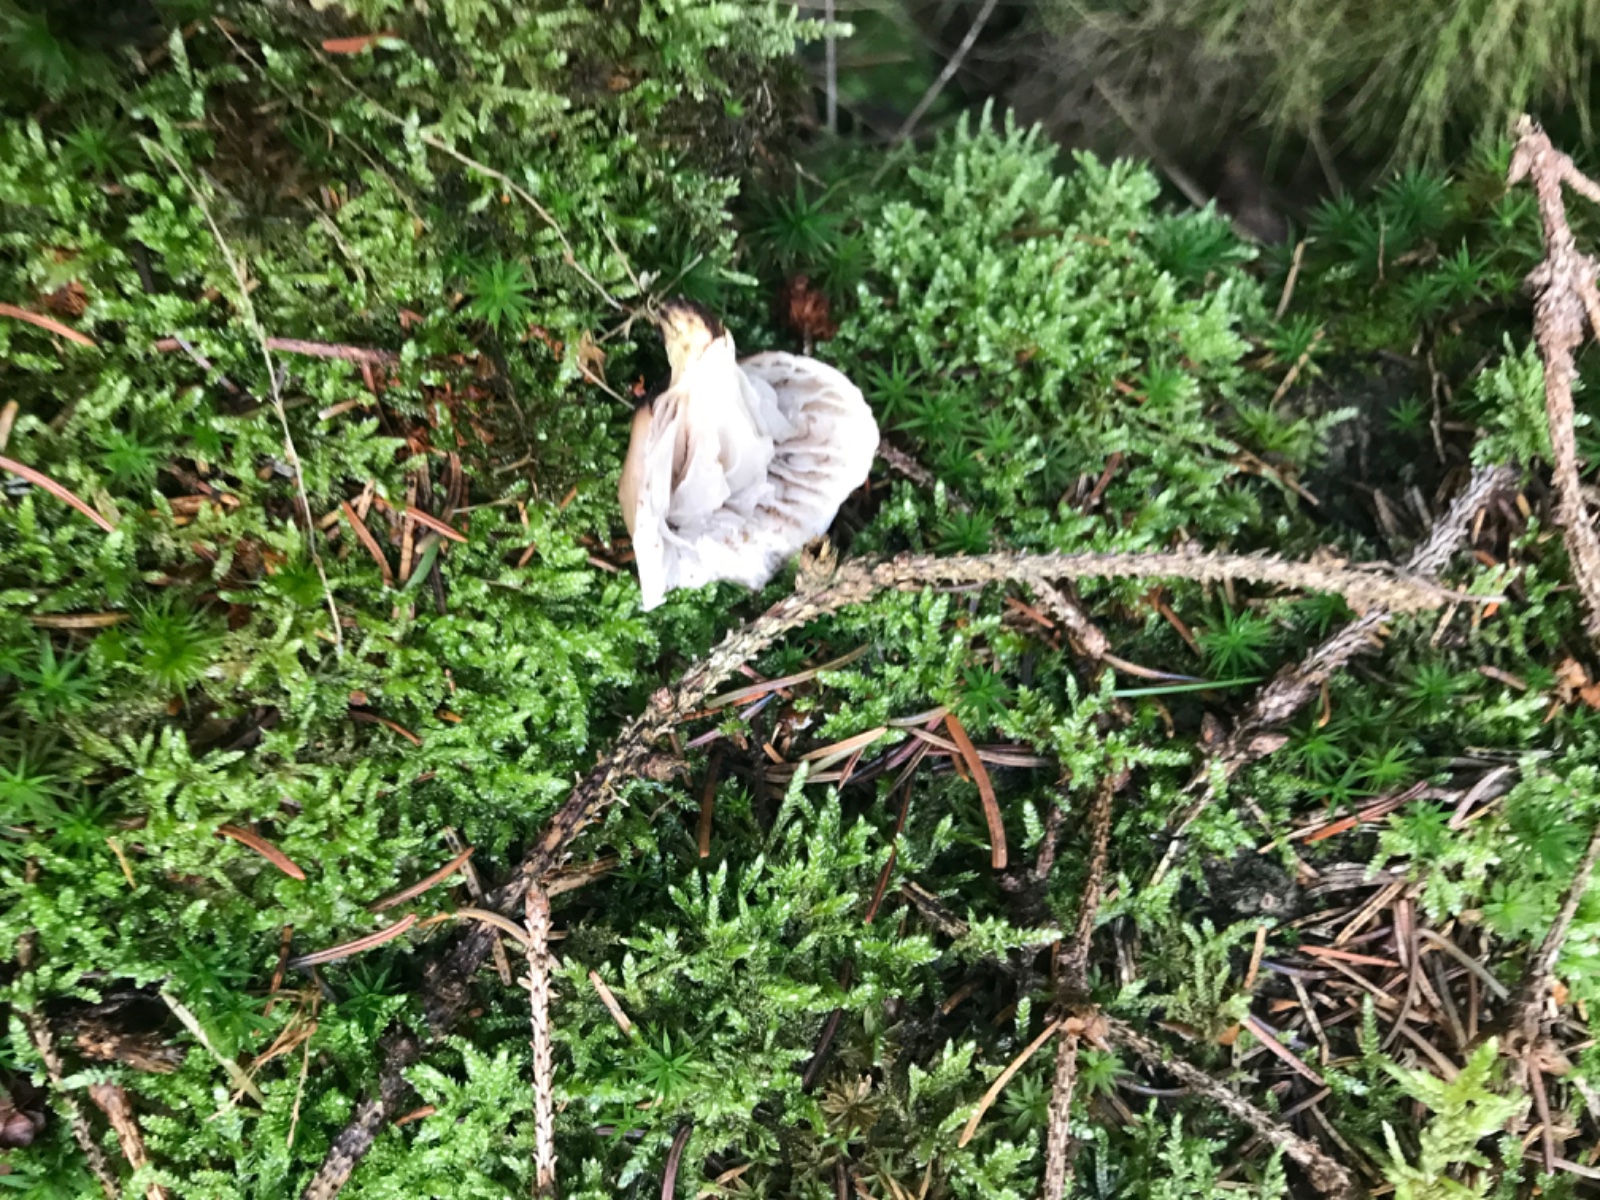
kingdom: Fungi
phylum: Basidiomycota
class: Agaricomycetes
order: Boletales
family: Gomphidiaceae
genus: Gomphidius
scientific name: Gomphidius glutinosus
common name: grå slimslør
